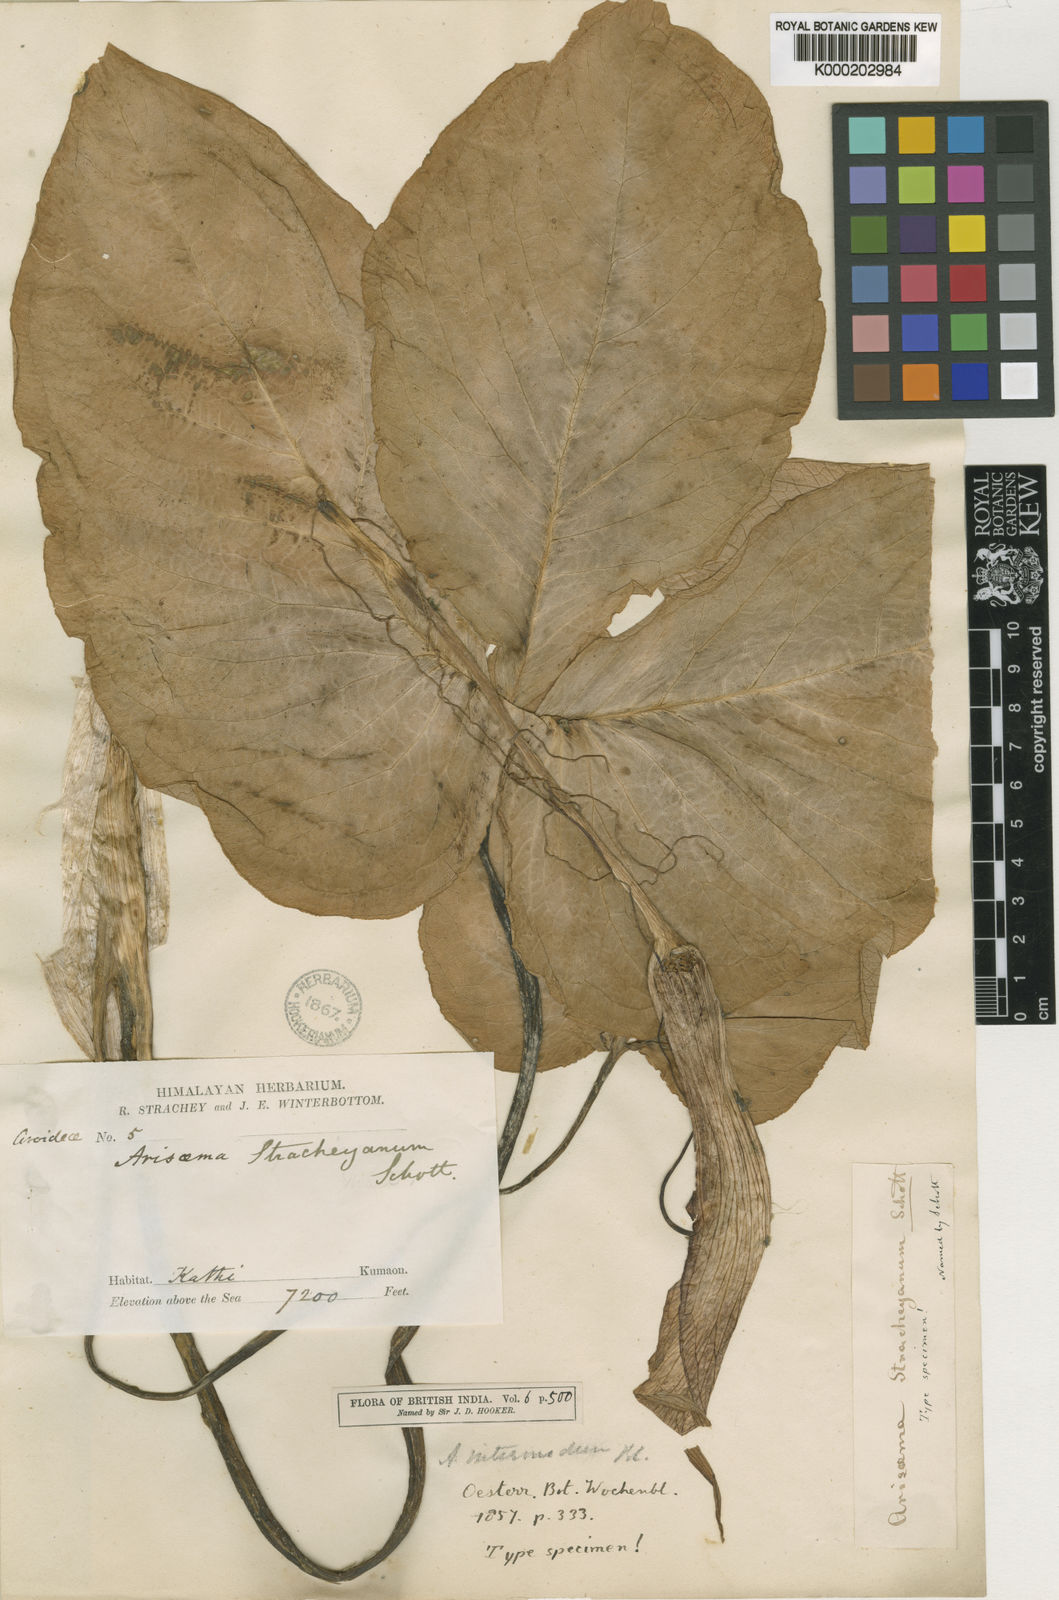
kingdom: Plantae
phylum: Tracheophyta
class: Liliopsida
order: Alismatales
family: Araceae
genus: Arisaema
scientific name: Arisaema intermedium
